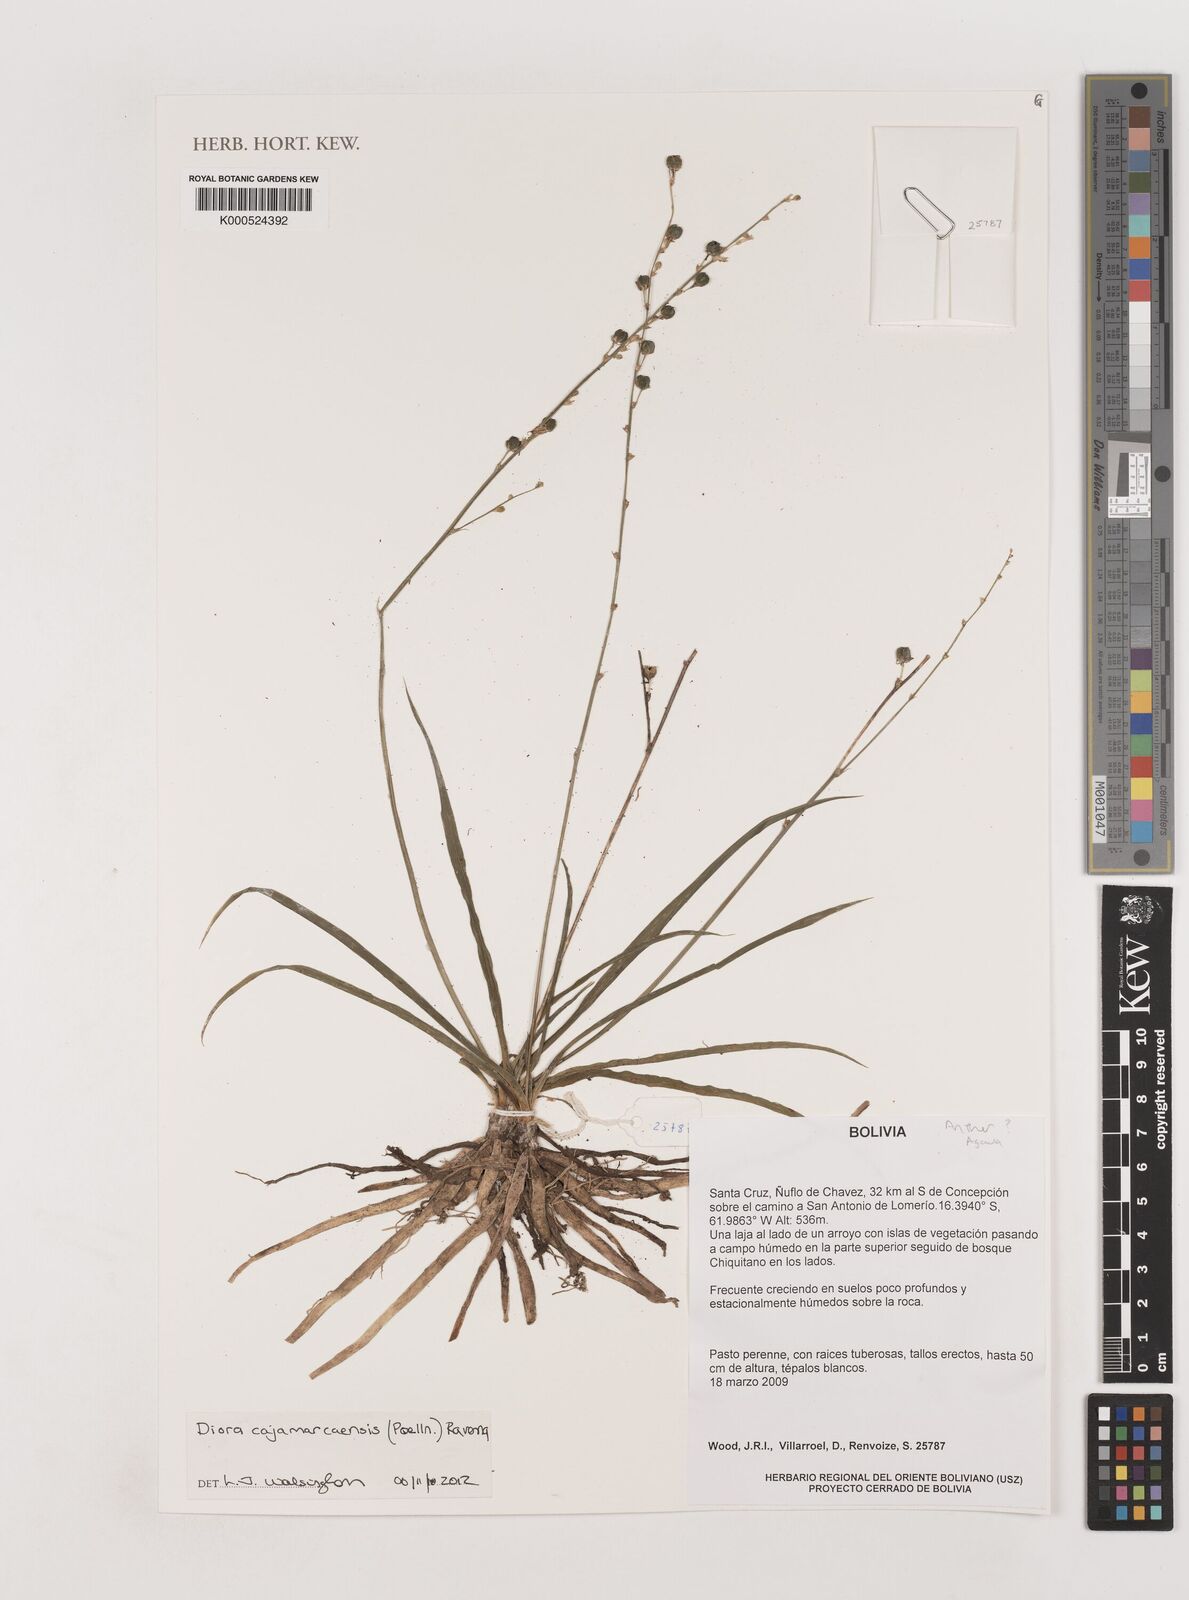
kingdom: Plantae
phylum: Tracheophyta
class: Liliopsida
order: Asparagales
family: Asparagaceae
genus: Diora
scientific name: Diora cajamarcaensis
